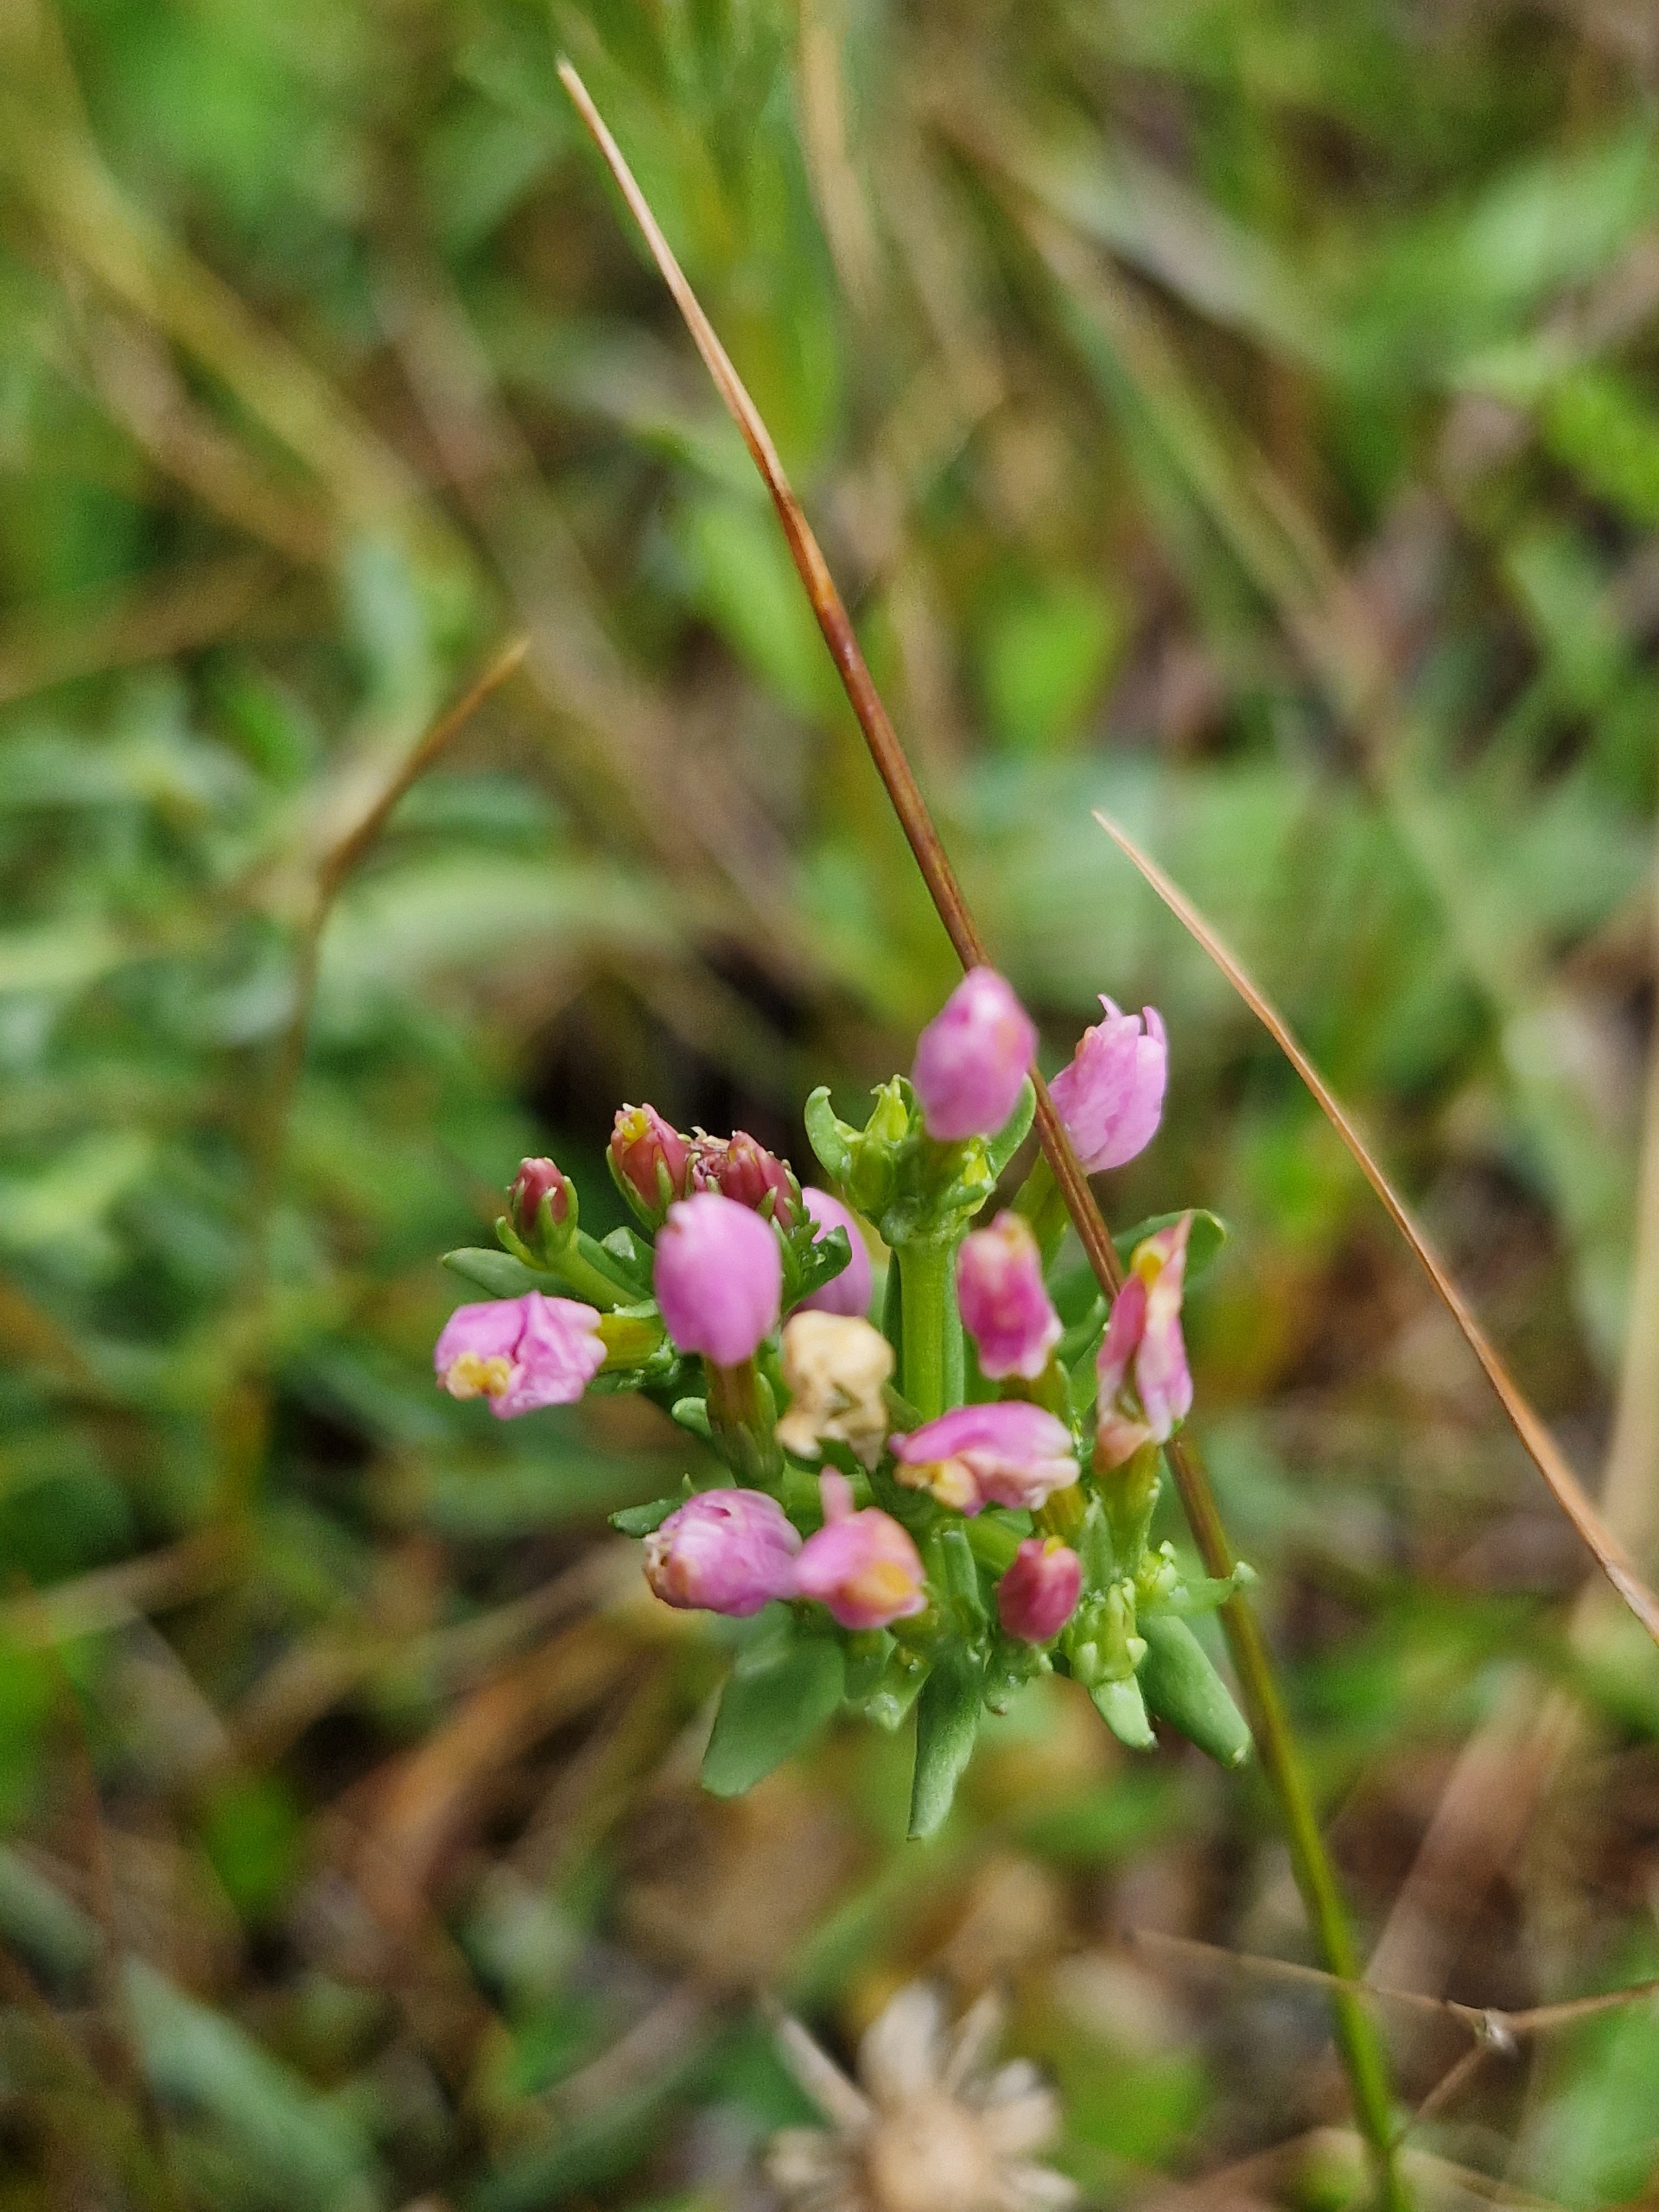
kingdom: Plantae
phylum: Tracheophyta
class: Magnoliopsida
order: Gentianales
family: Gentianaceae
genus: Centaurium
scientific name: Centaurium erythraea
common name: Hoved-tusindgylden
